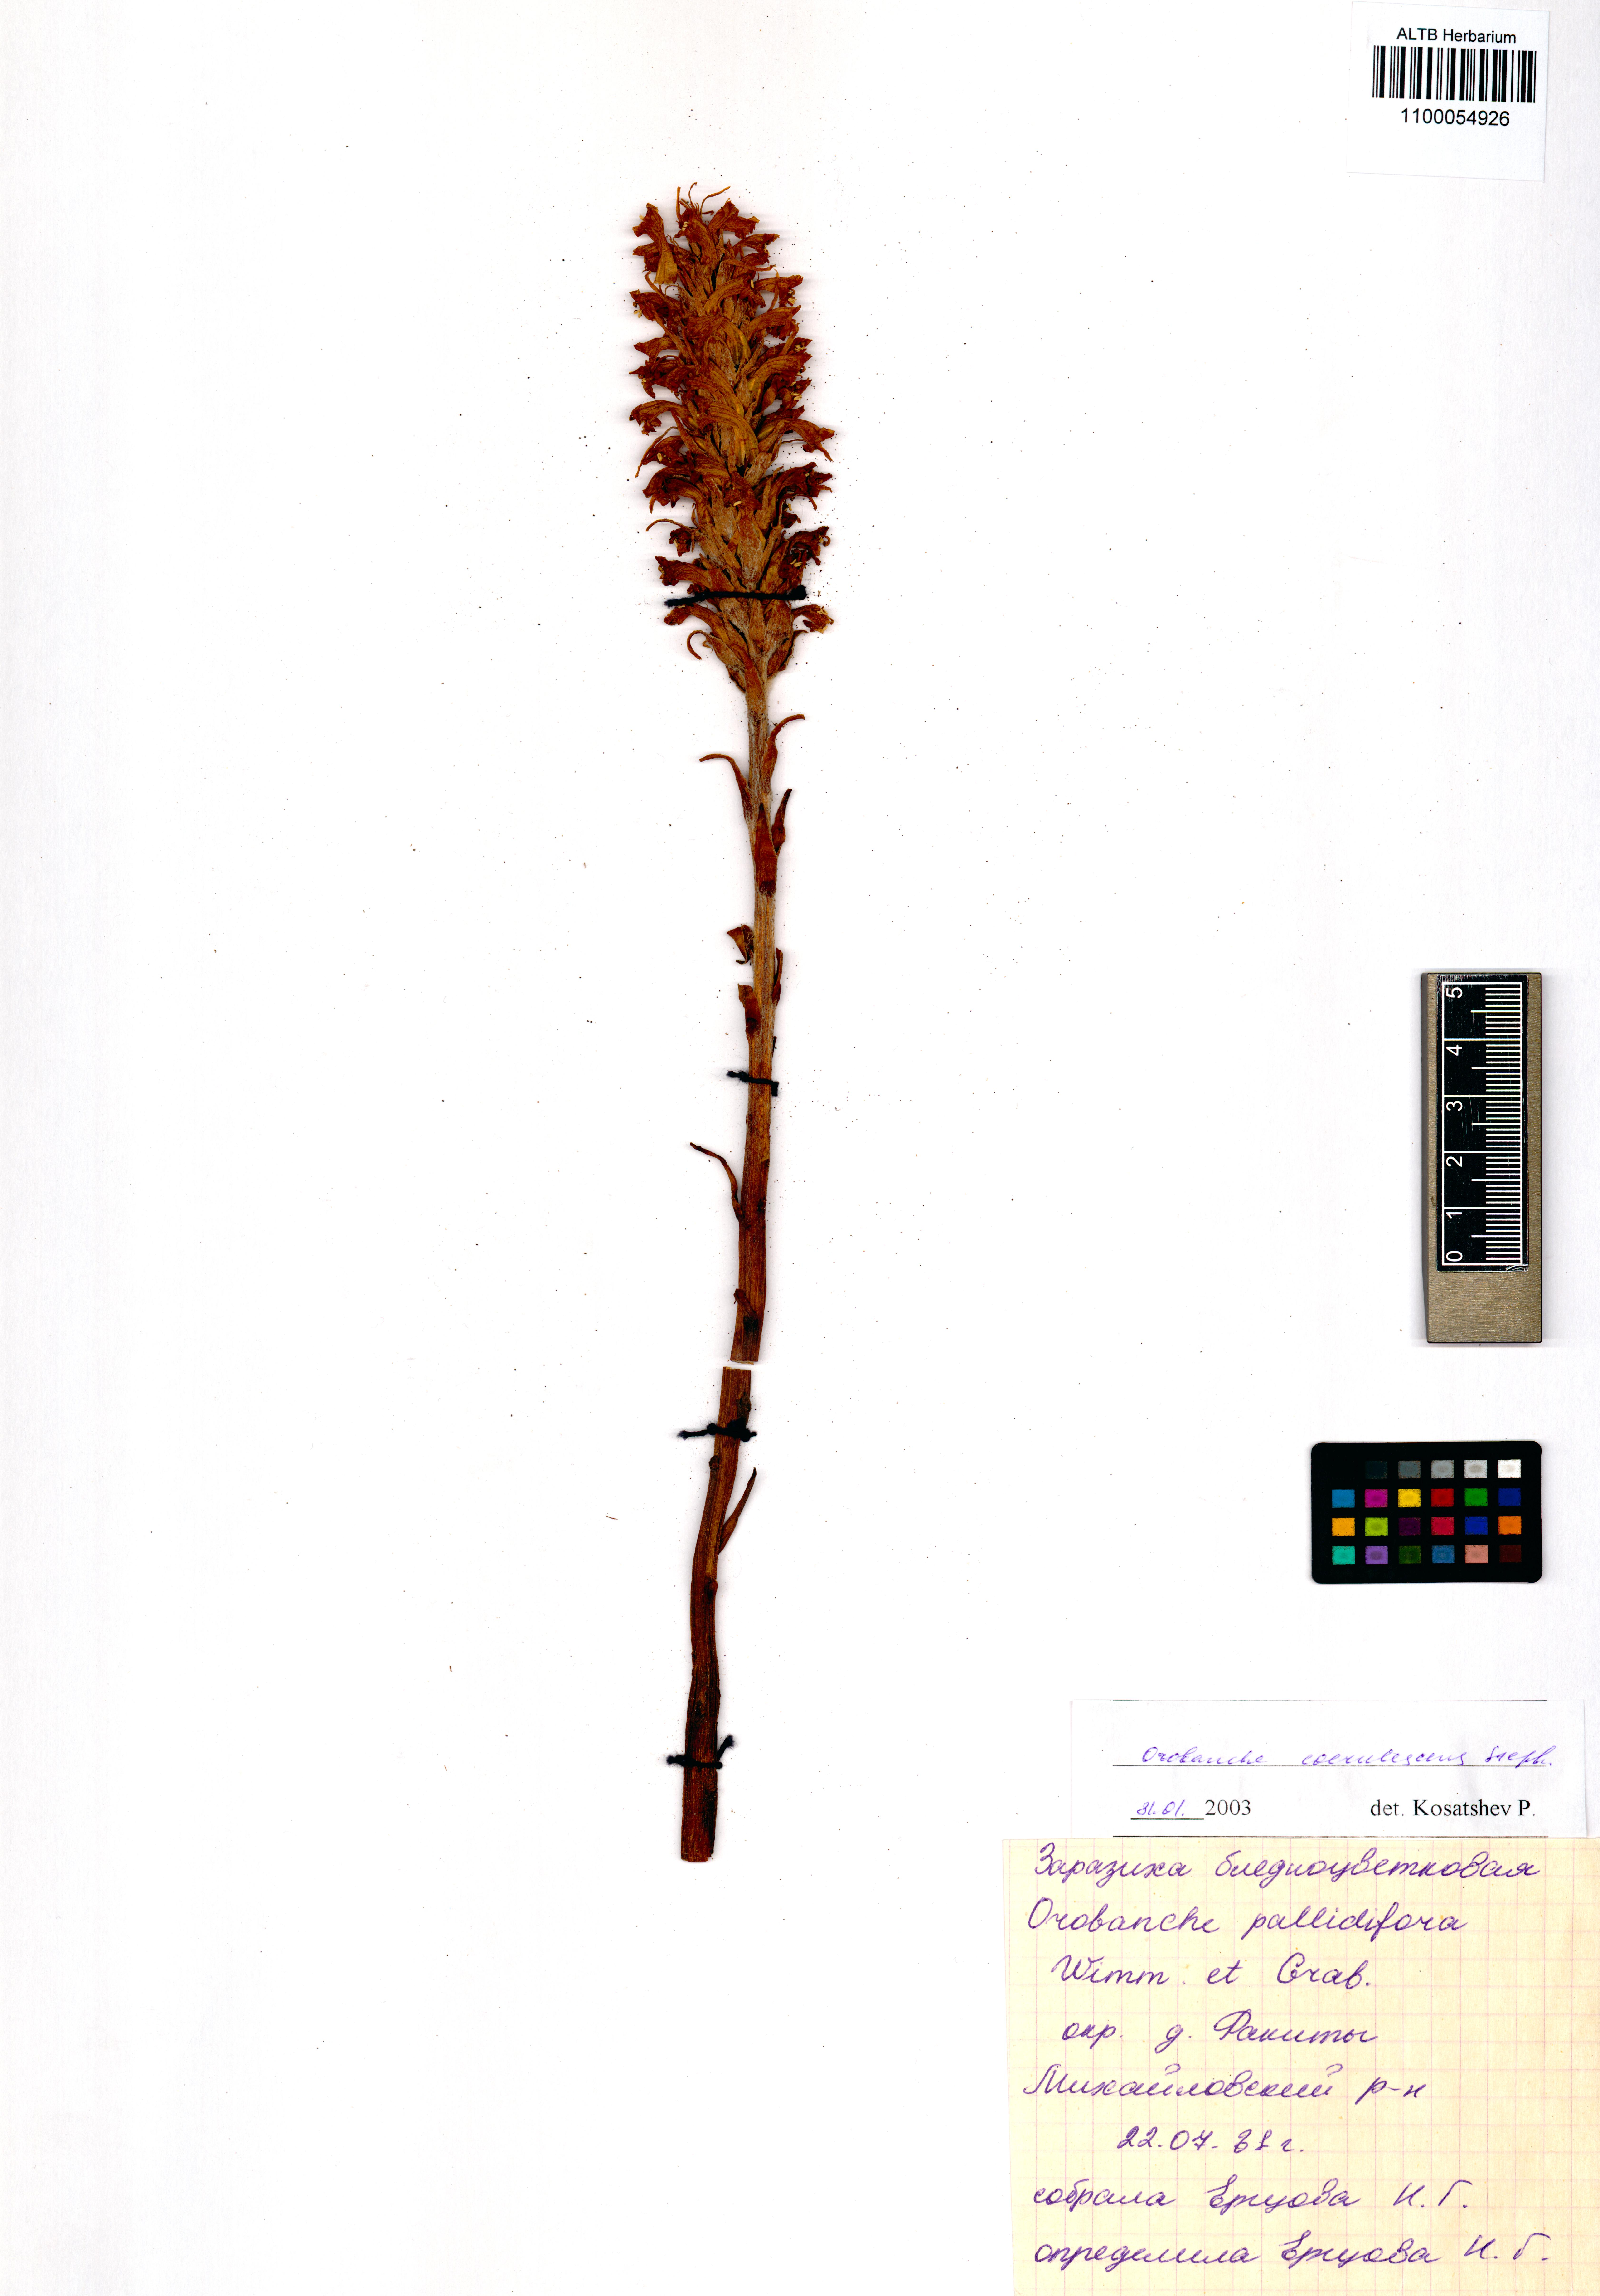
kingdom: Plantae
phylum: Tracheophyta
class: Magnoliopsida
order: Lamiales
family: Orobanchaceae
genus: Orobanche
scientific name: Orobanche coerulescens
